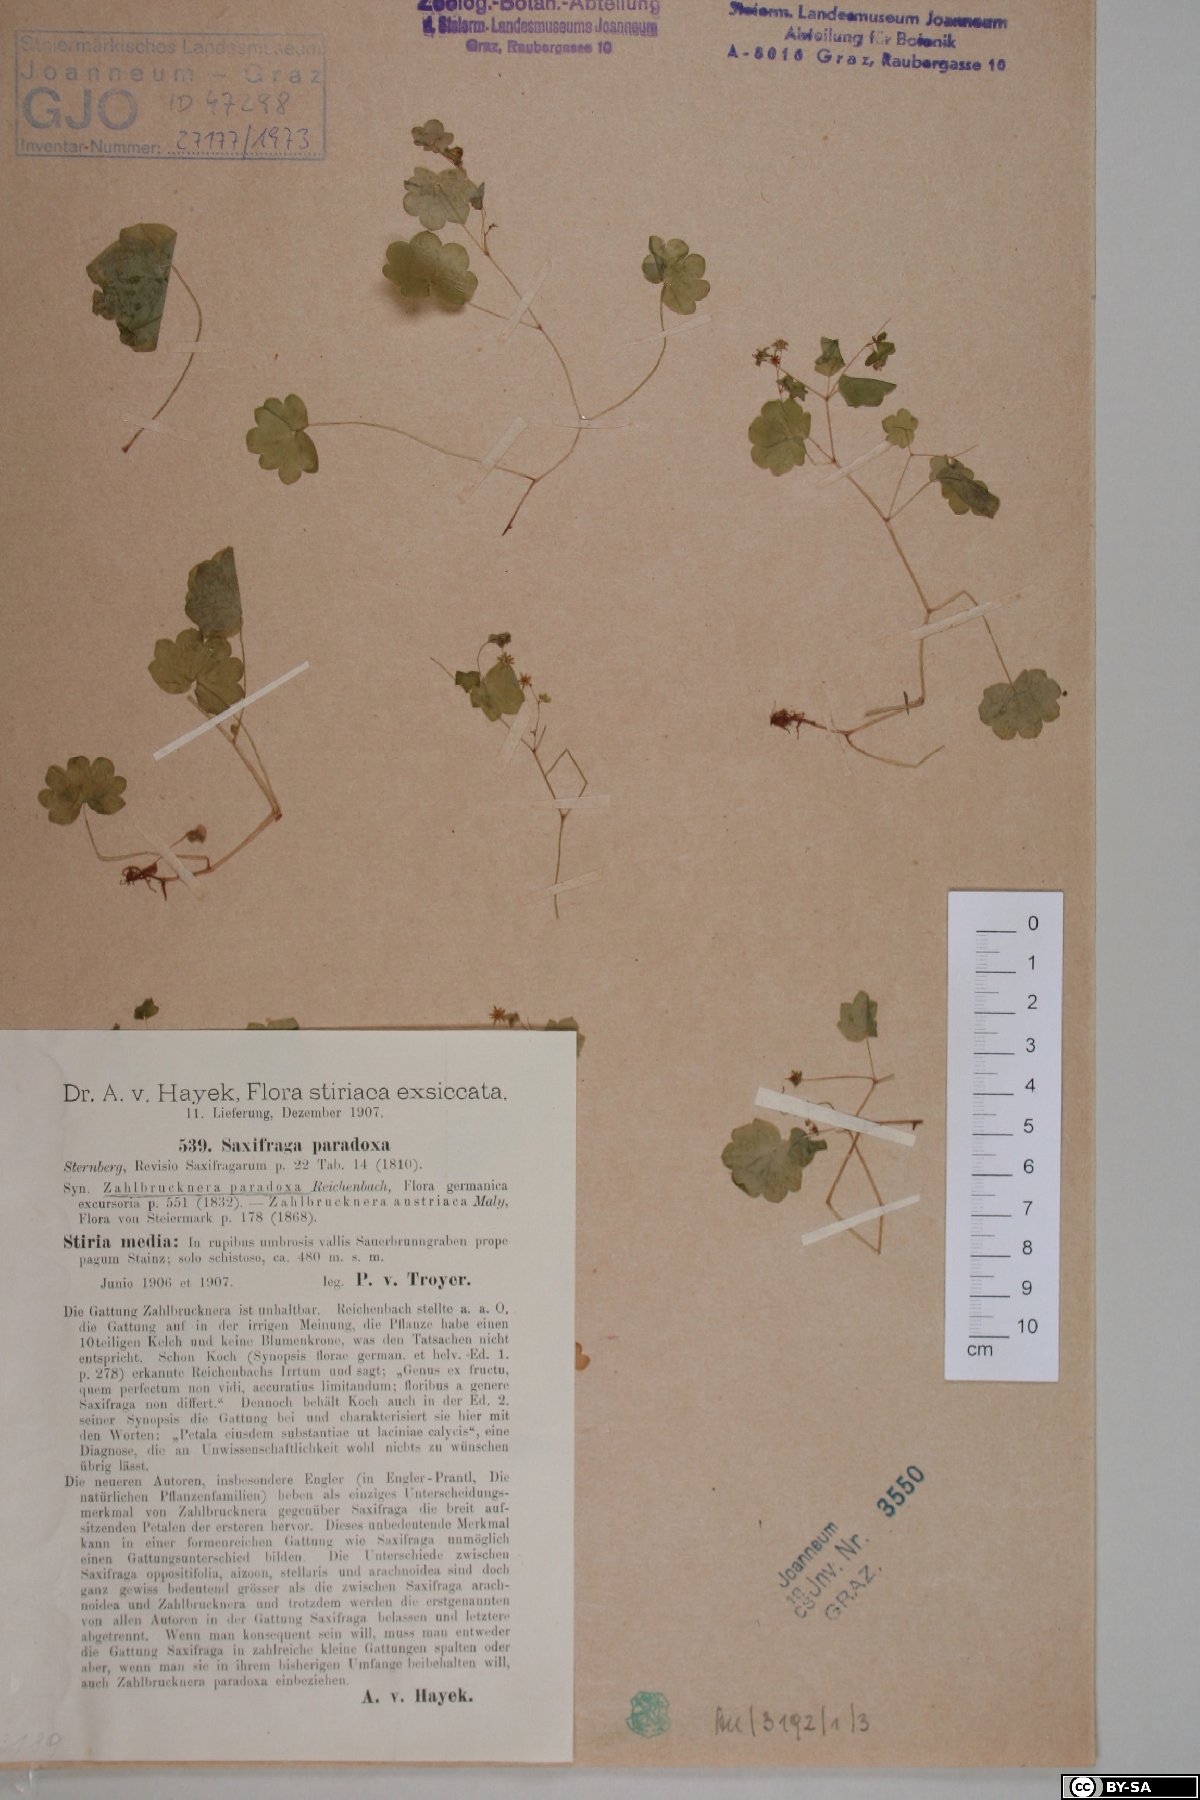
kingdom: Plantae
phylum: Tracheophyta
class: Liliopsida
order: Asparagales
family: Iridaceae
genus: Crocus
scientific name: Crocus boryi
